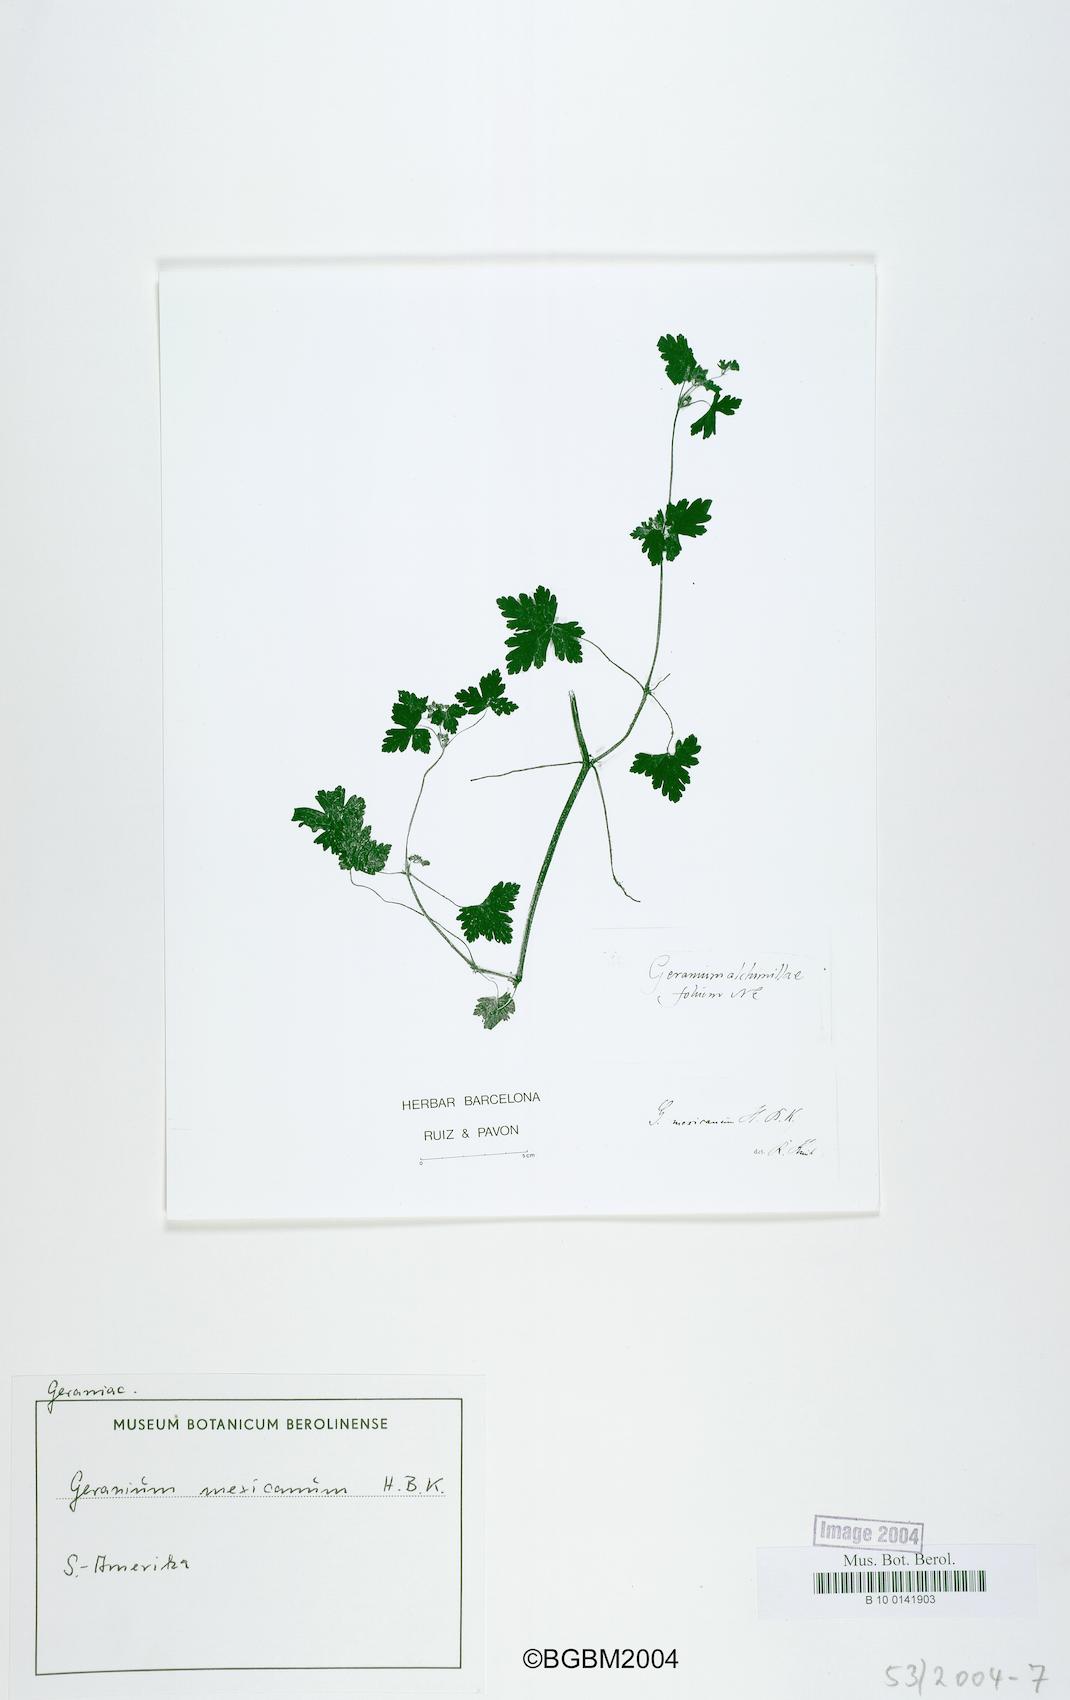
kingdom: Plantae
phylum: Tracheophyta
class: Magnoliopsida
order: Geraniales
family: Geraniaceae
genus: Geranium
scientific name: Geranium mexicanum
